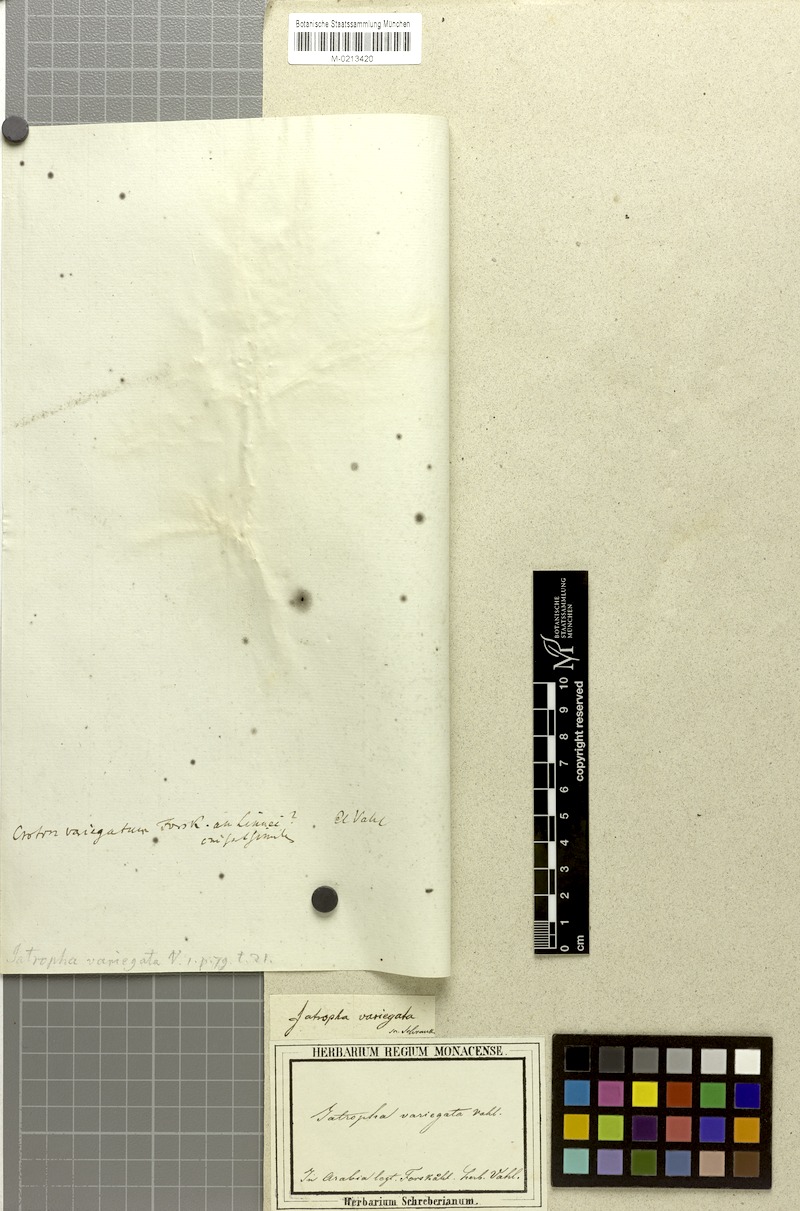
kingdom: Plantae
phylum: Tracheophyta
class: Magnoliopsida
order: Malpighiales
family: Euphorbiaceae
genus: Jatropha
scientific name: Jatropha variegata
